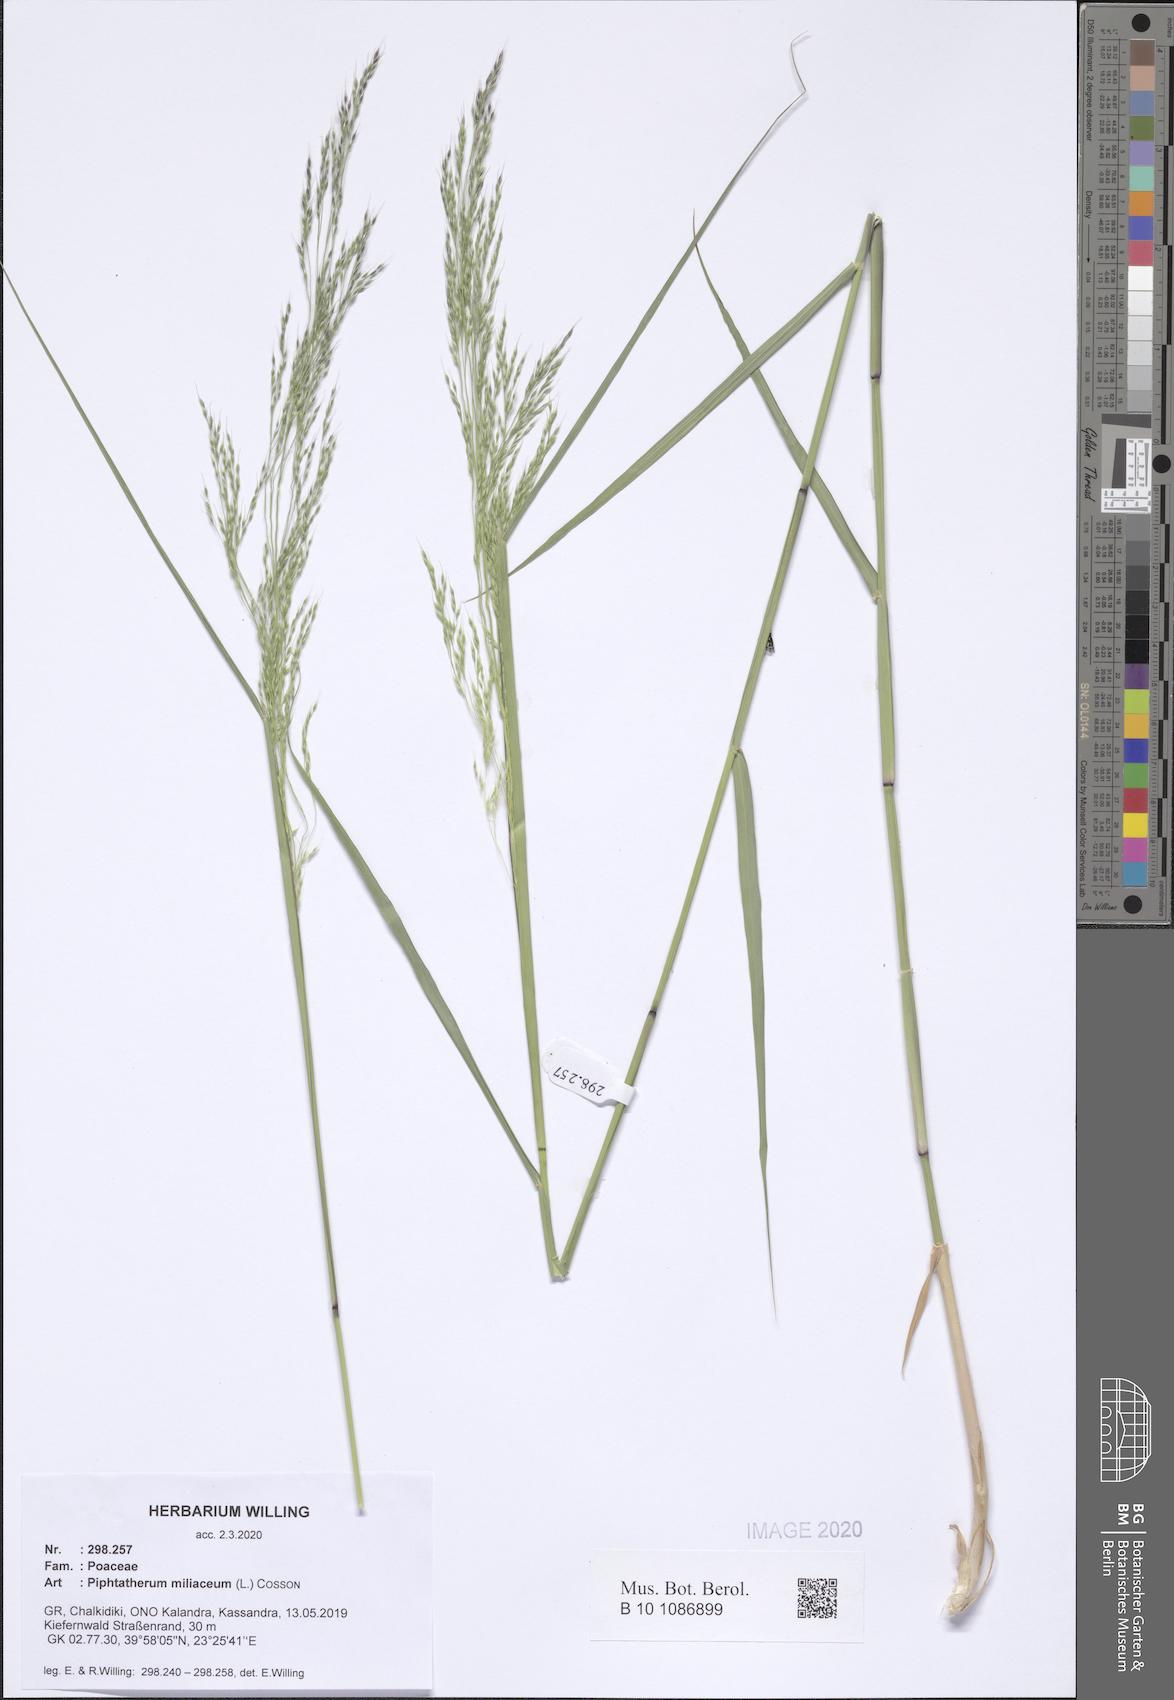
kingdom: Plantae
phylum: Tracheophyta
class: Liliopsida
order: Poales
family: Poaceae
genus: Oloptum
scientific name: Oloptum miliaceum
